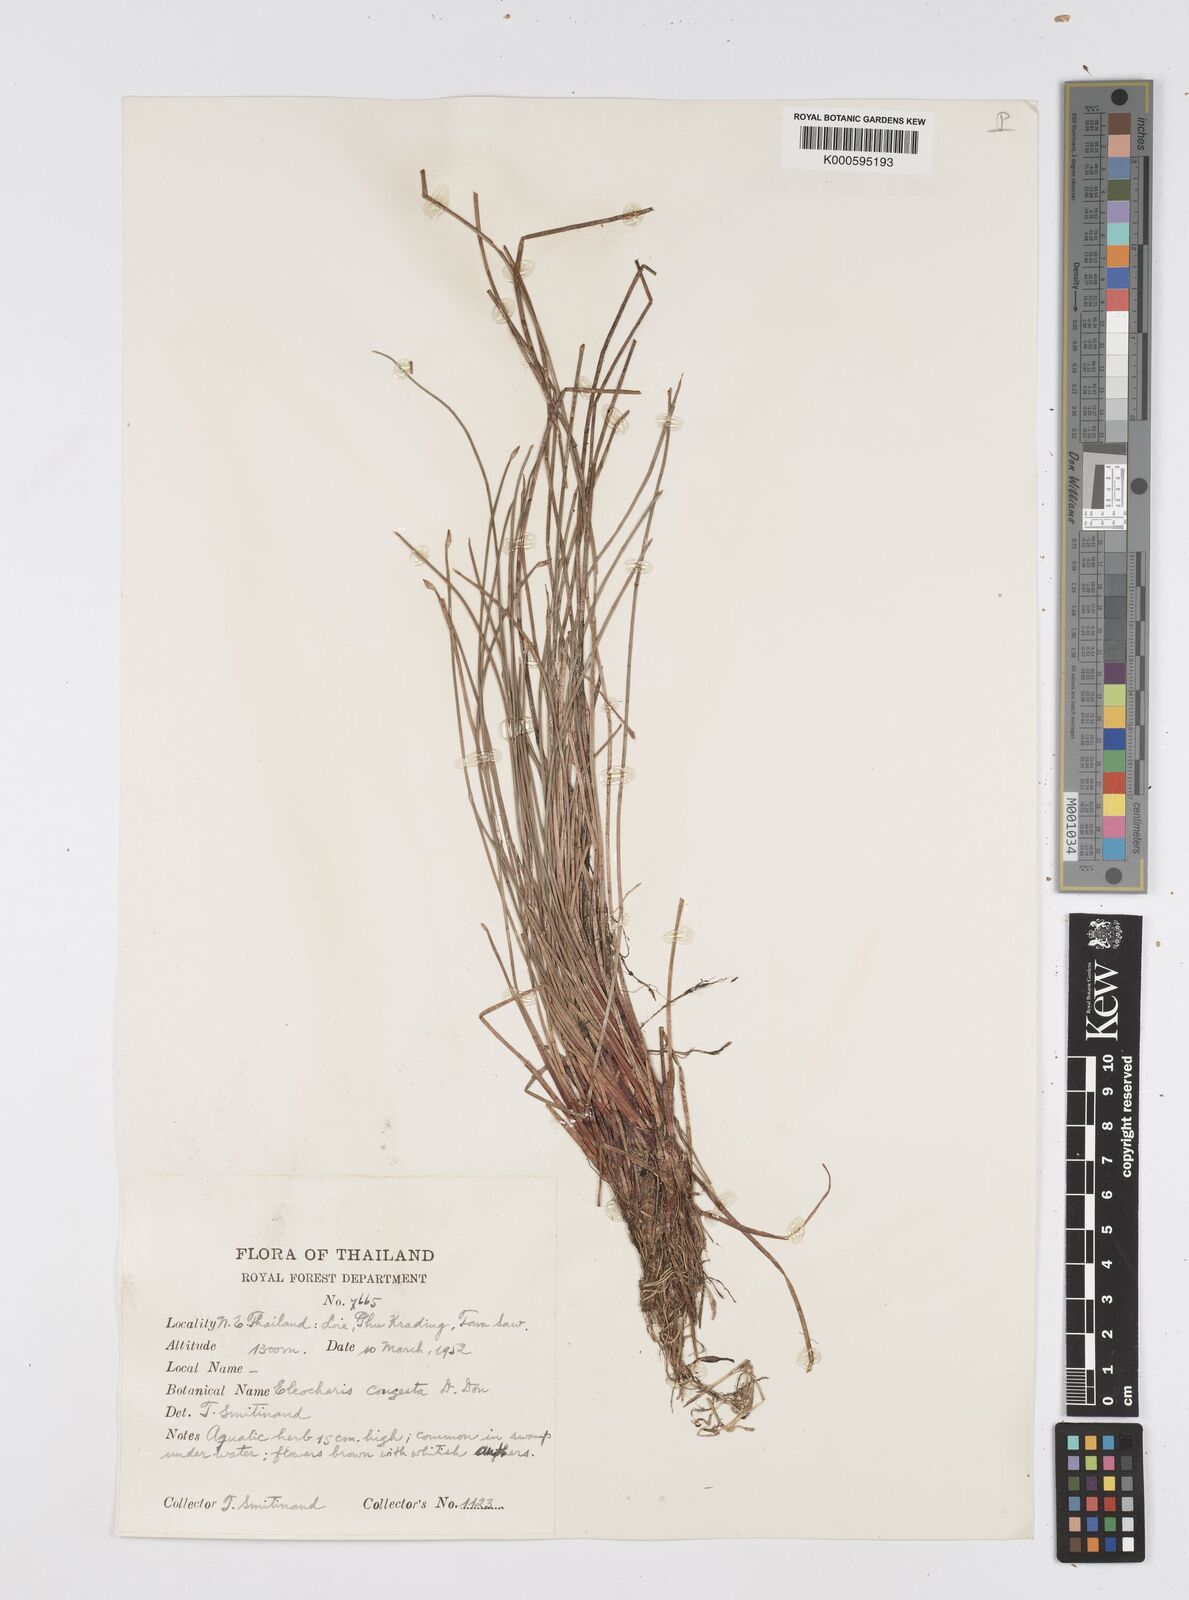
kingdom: Plantae
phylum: Tracheophyta
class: Liliopsida
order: Poales
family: Cyperaceae
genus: Eleocharis
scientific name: Eleocharis congesta
